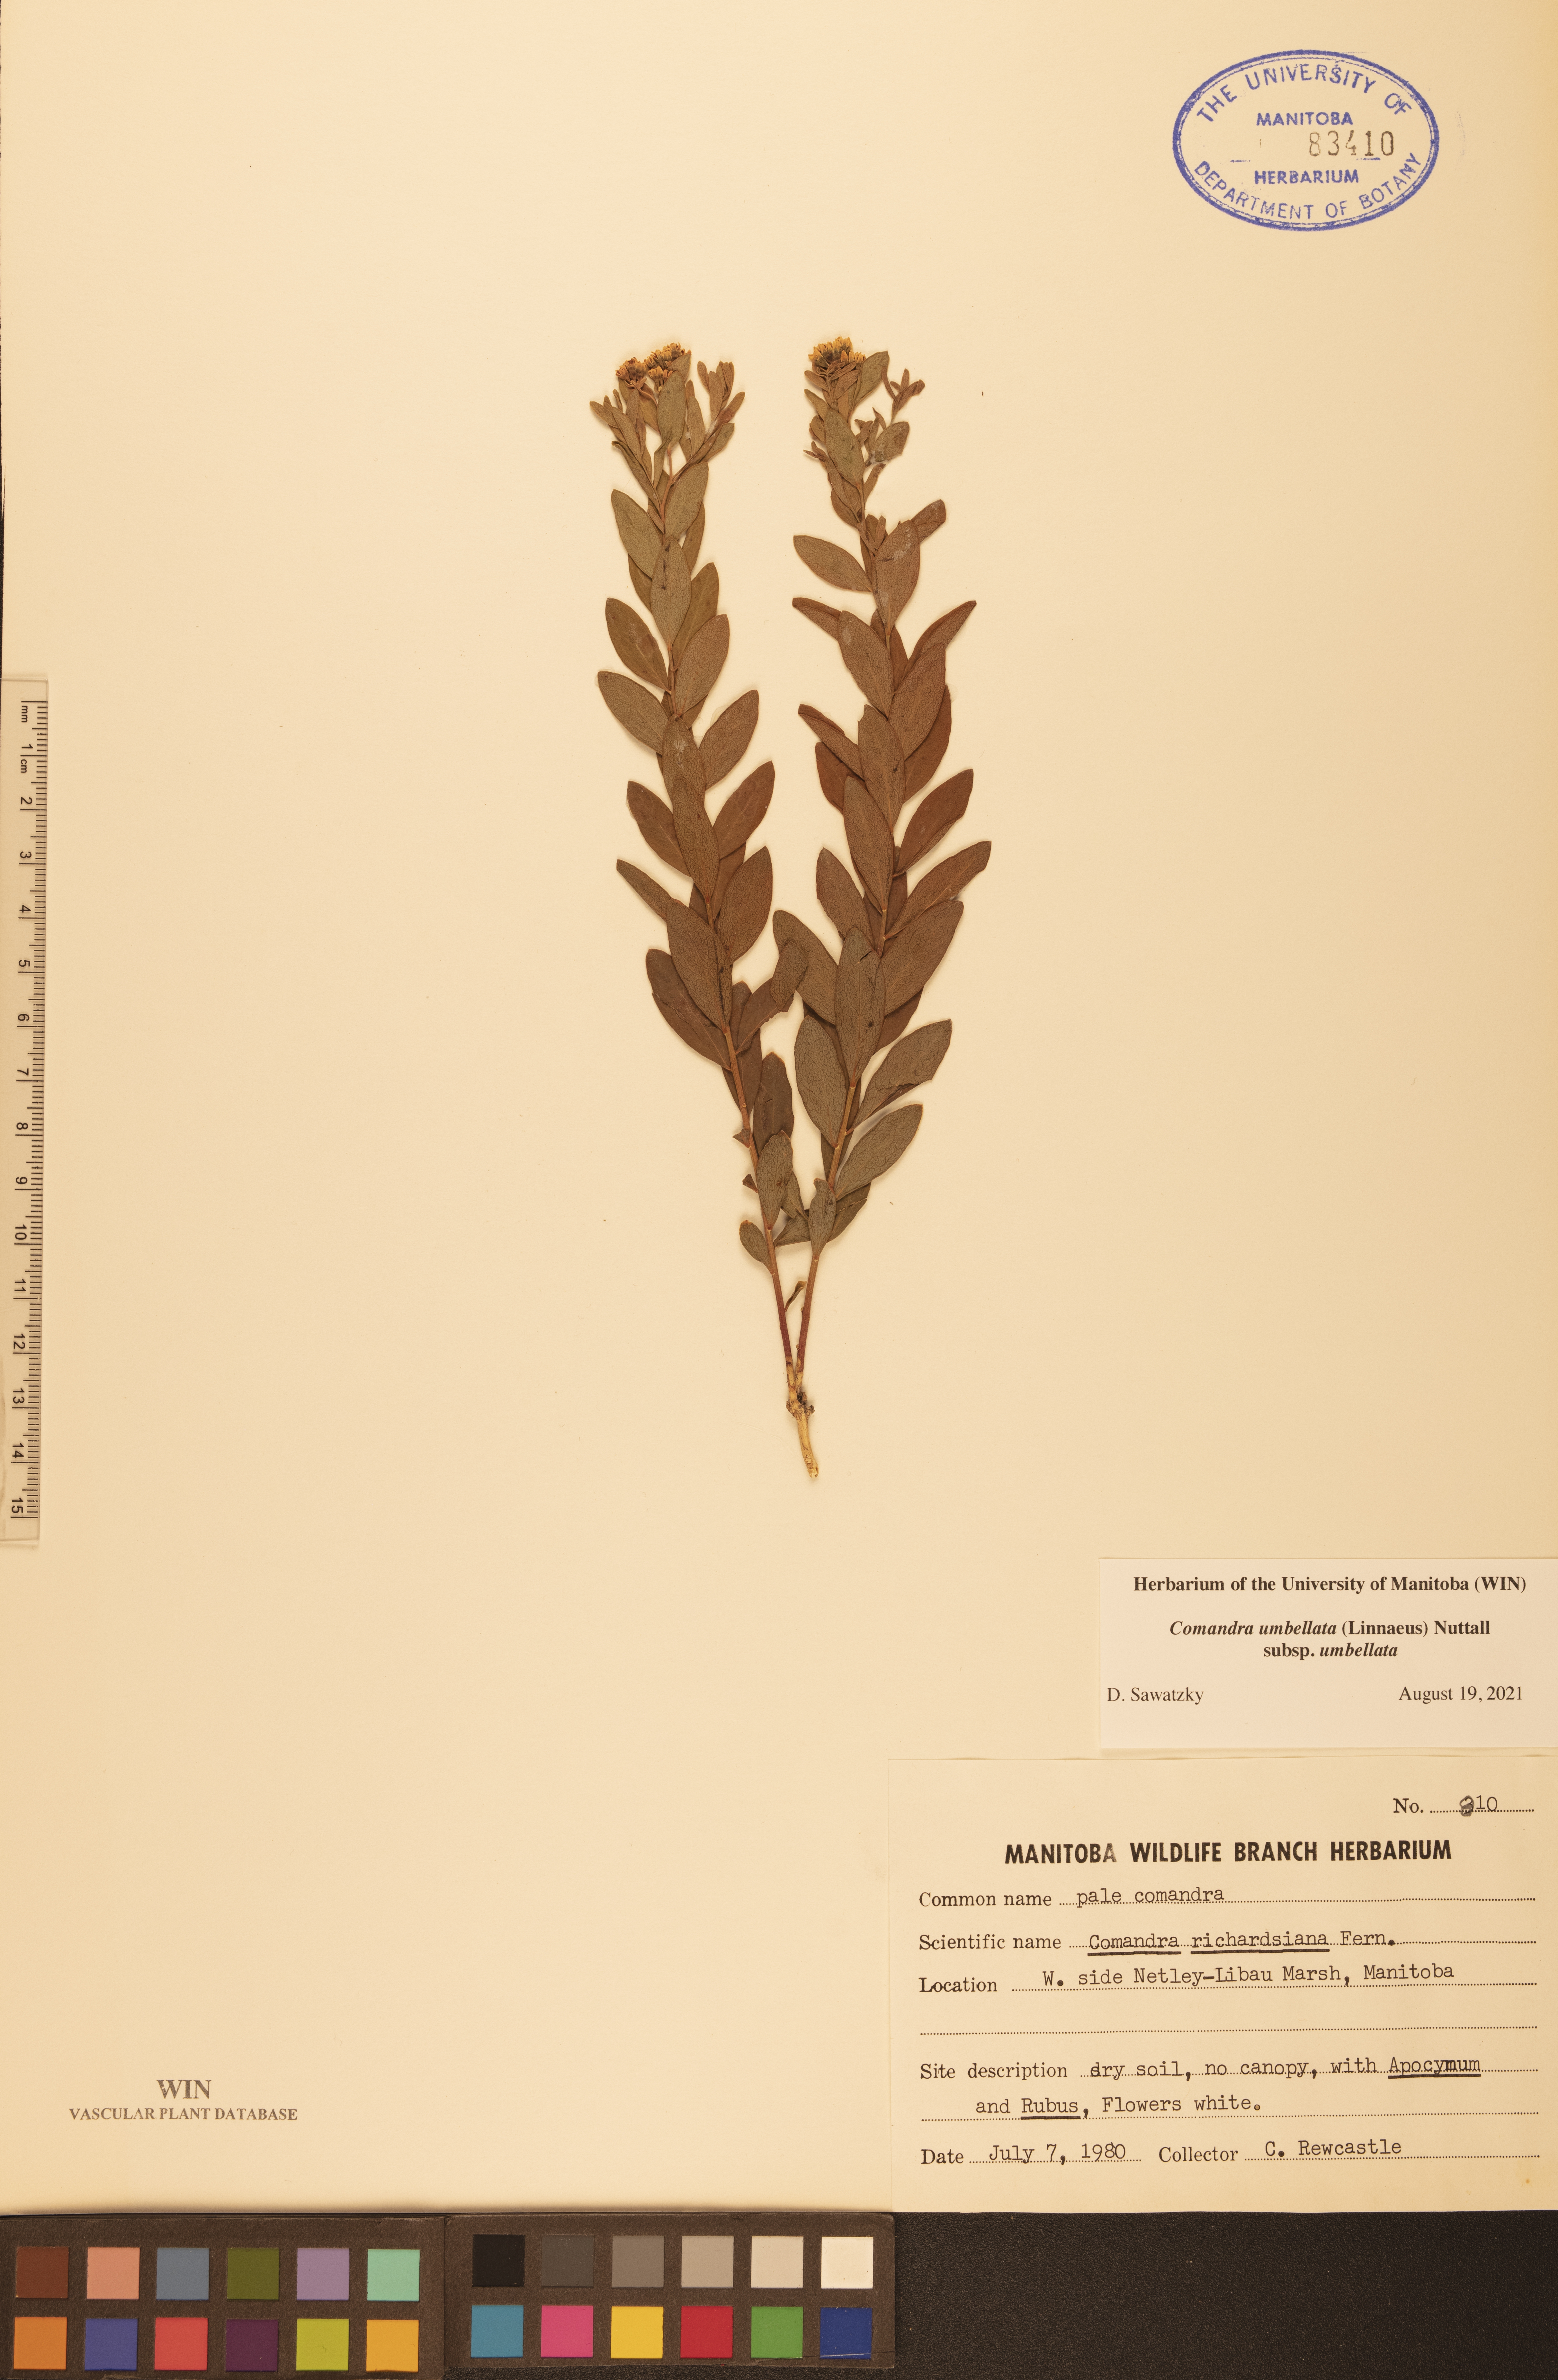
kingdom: Plantae
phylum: Tracheophyta
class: Magnoliopsida
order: Santalales
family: Comandraceae
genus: Comandra
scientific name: Comandra umbellata
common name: Bastard toadflax
